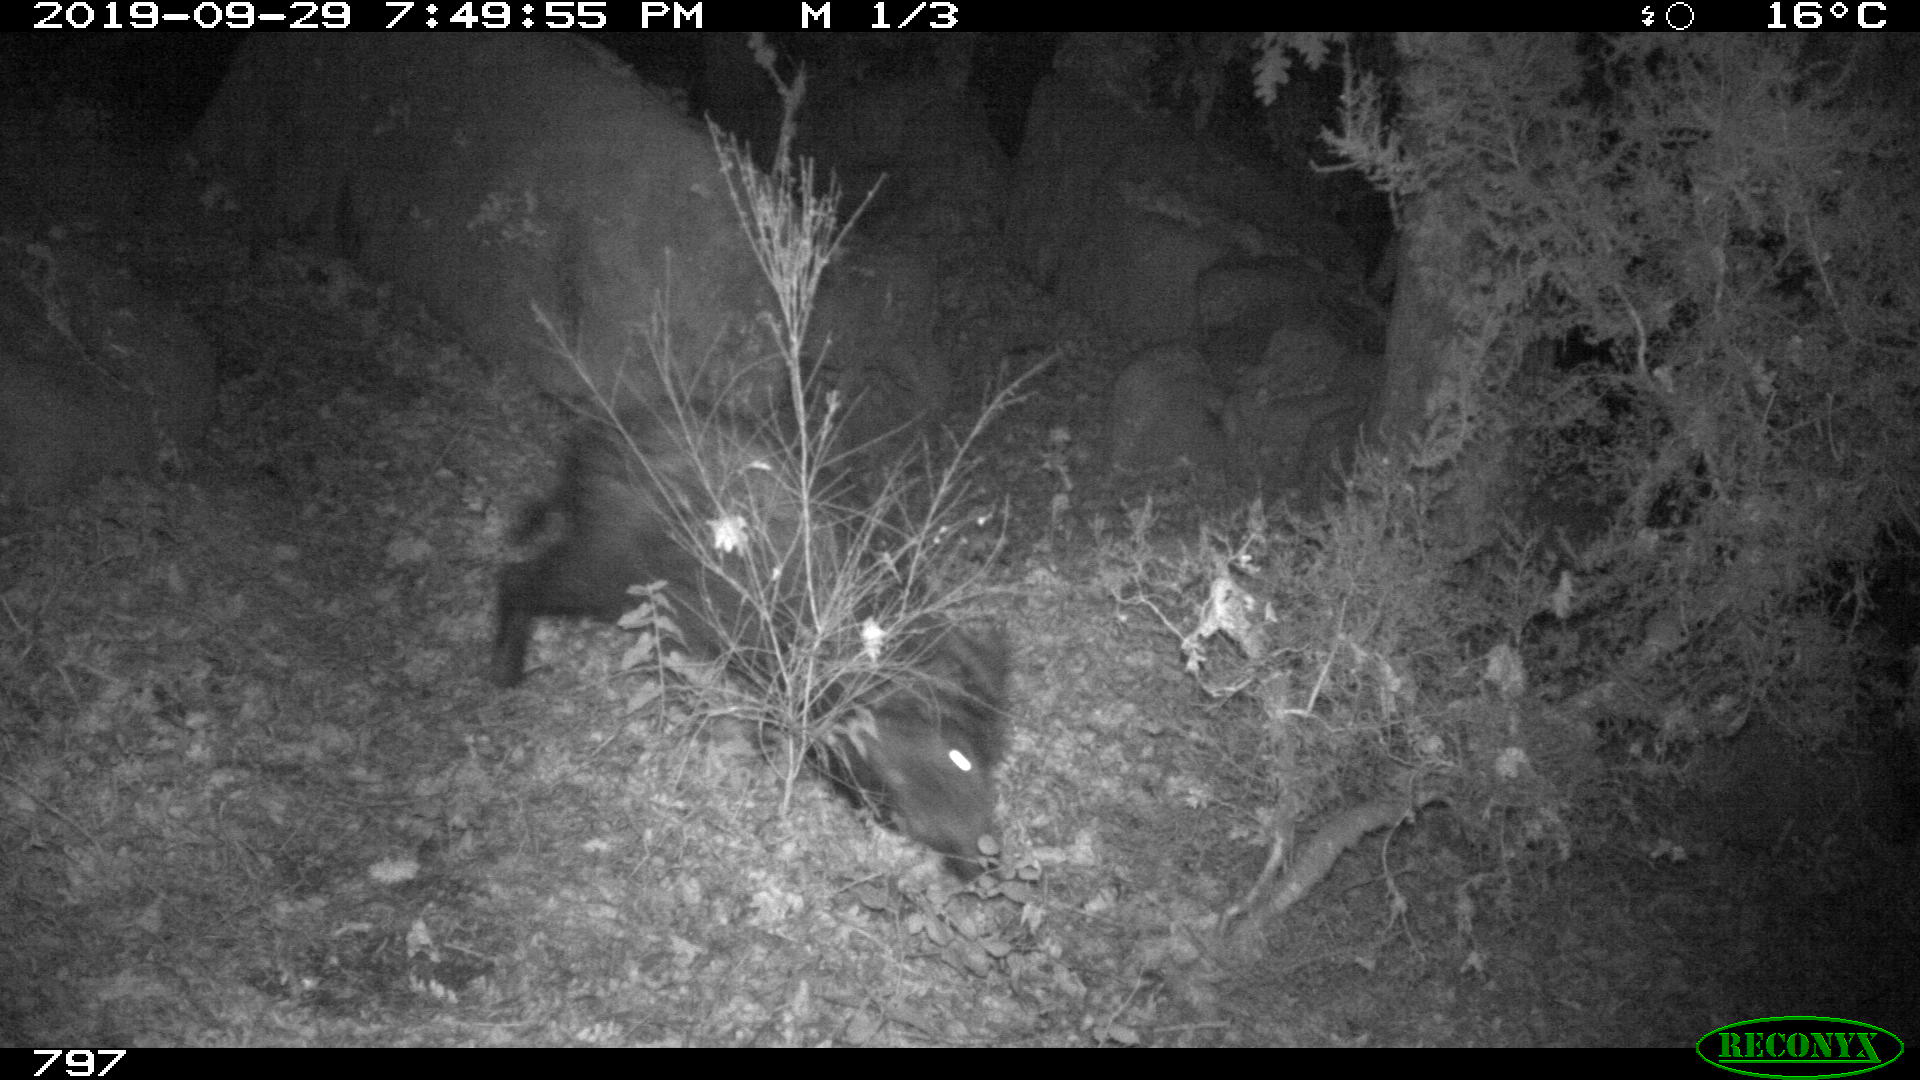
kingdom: Animalia
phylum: Chordata
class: Mammalia
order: Artiodactyla
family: Suidae
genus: Sus
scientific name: Sus scrofa
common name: Wild boar
